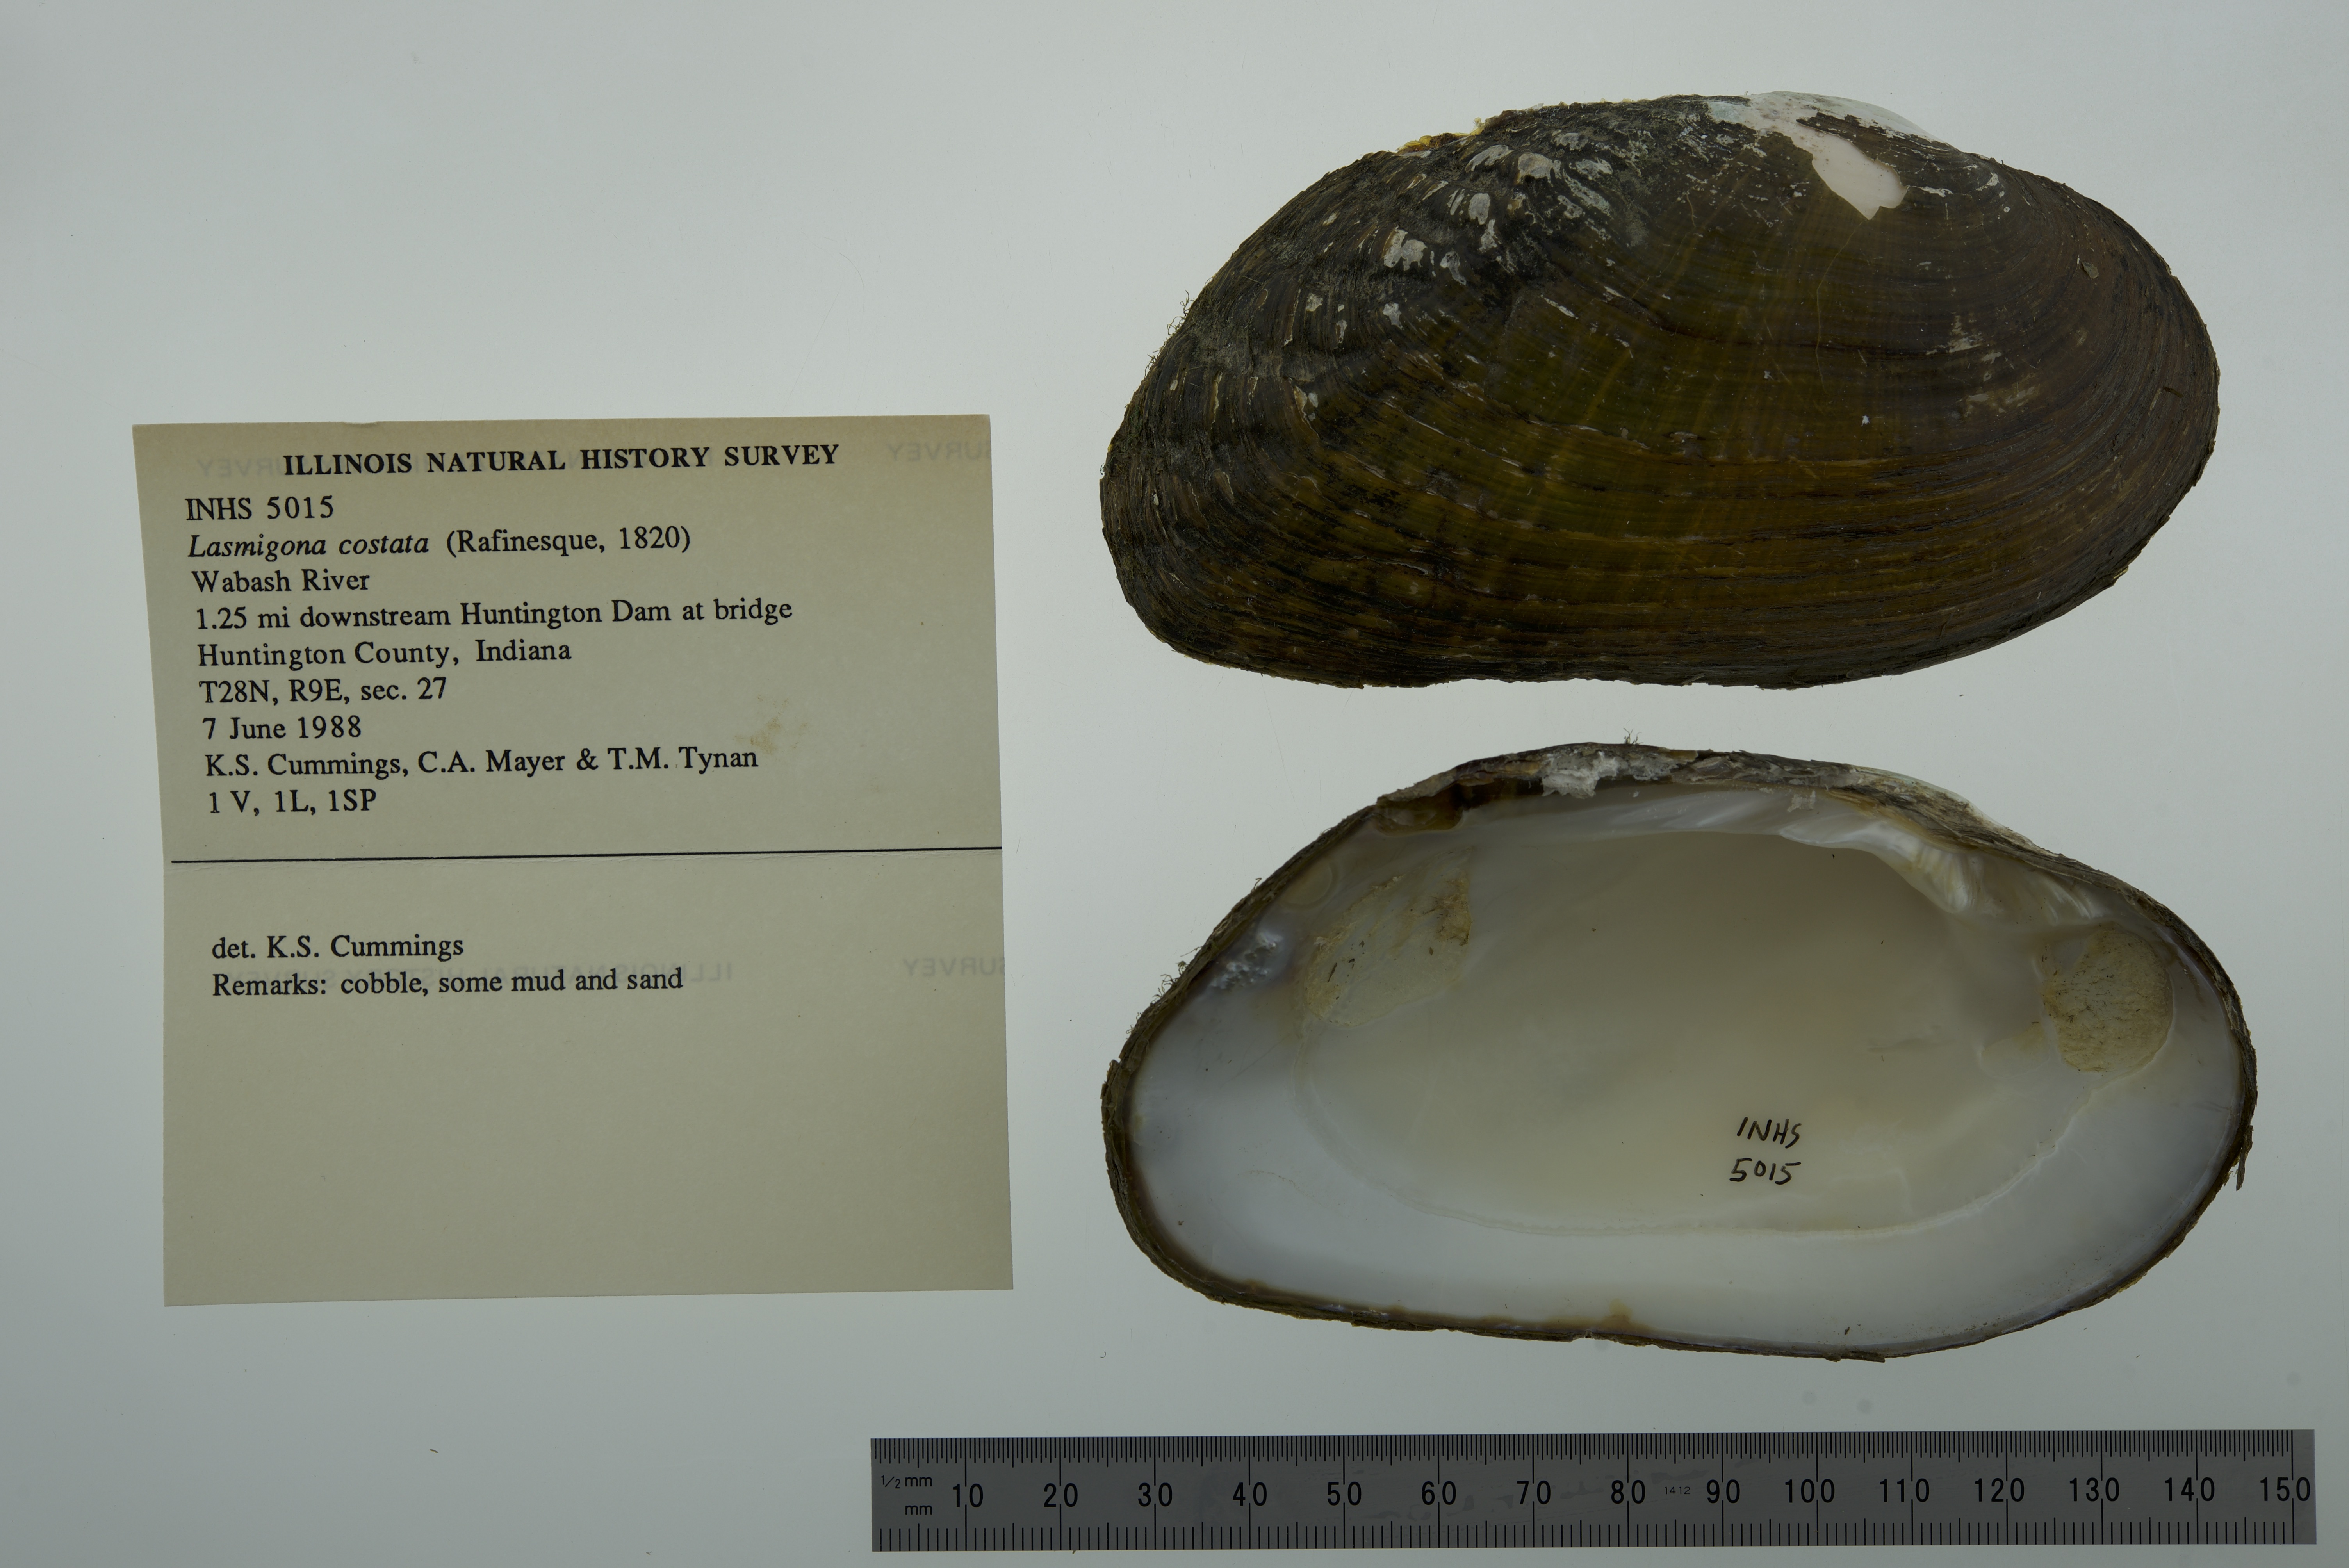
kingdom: Animalia
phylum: Mollusca
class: Bivalvia
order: Unionida
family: Unionidae
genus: Lasmigona
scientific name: Lasmigona costata
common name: Flutedshell
